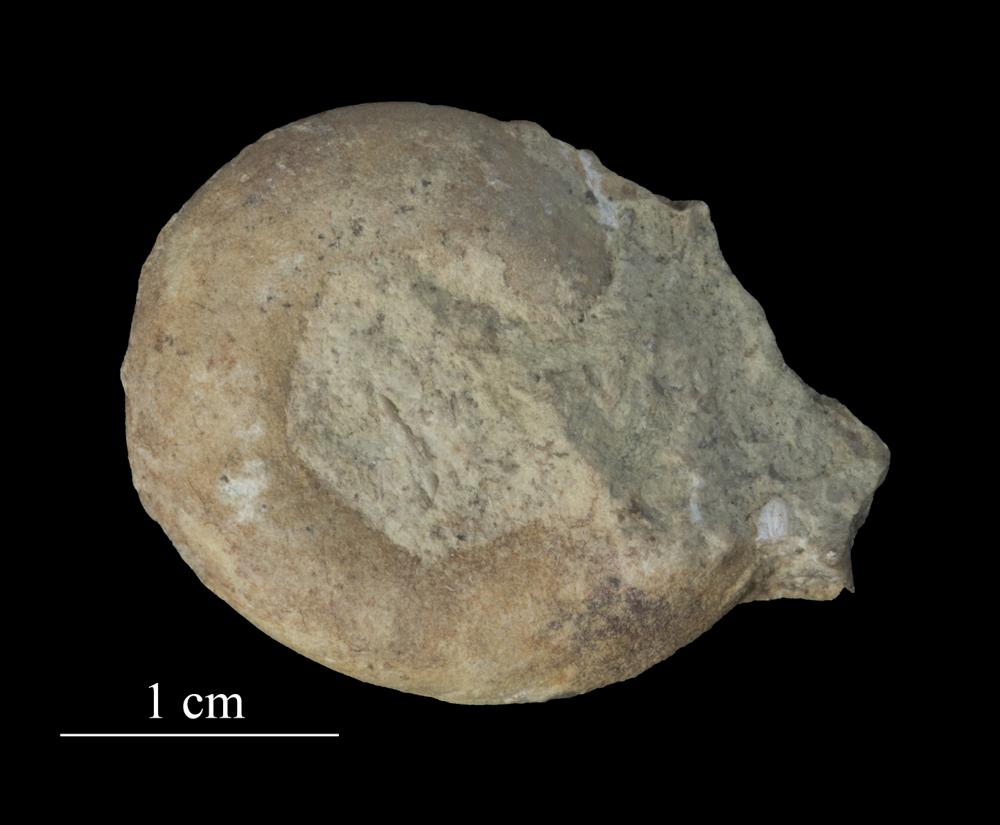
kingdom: Animalia
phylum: Mollusca
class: Gastropoda
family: Lesueurillidae
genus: Lesueurilla
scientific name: Lesueurilla Raphistoma acutangulum
